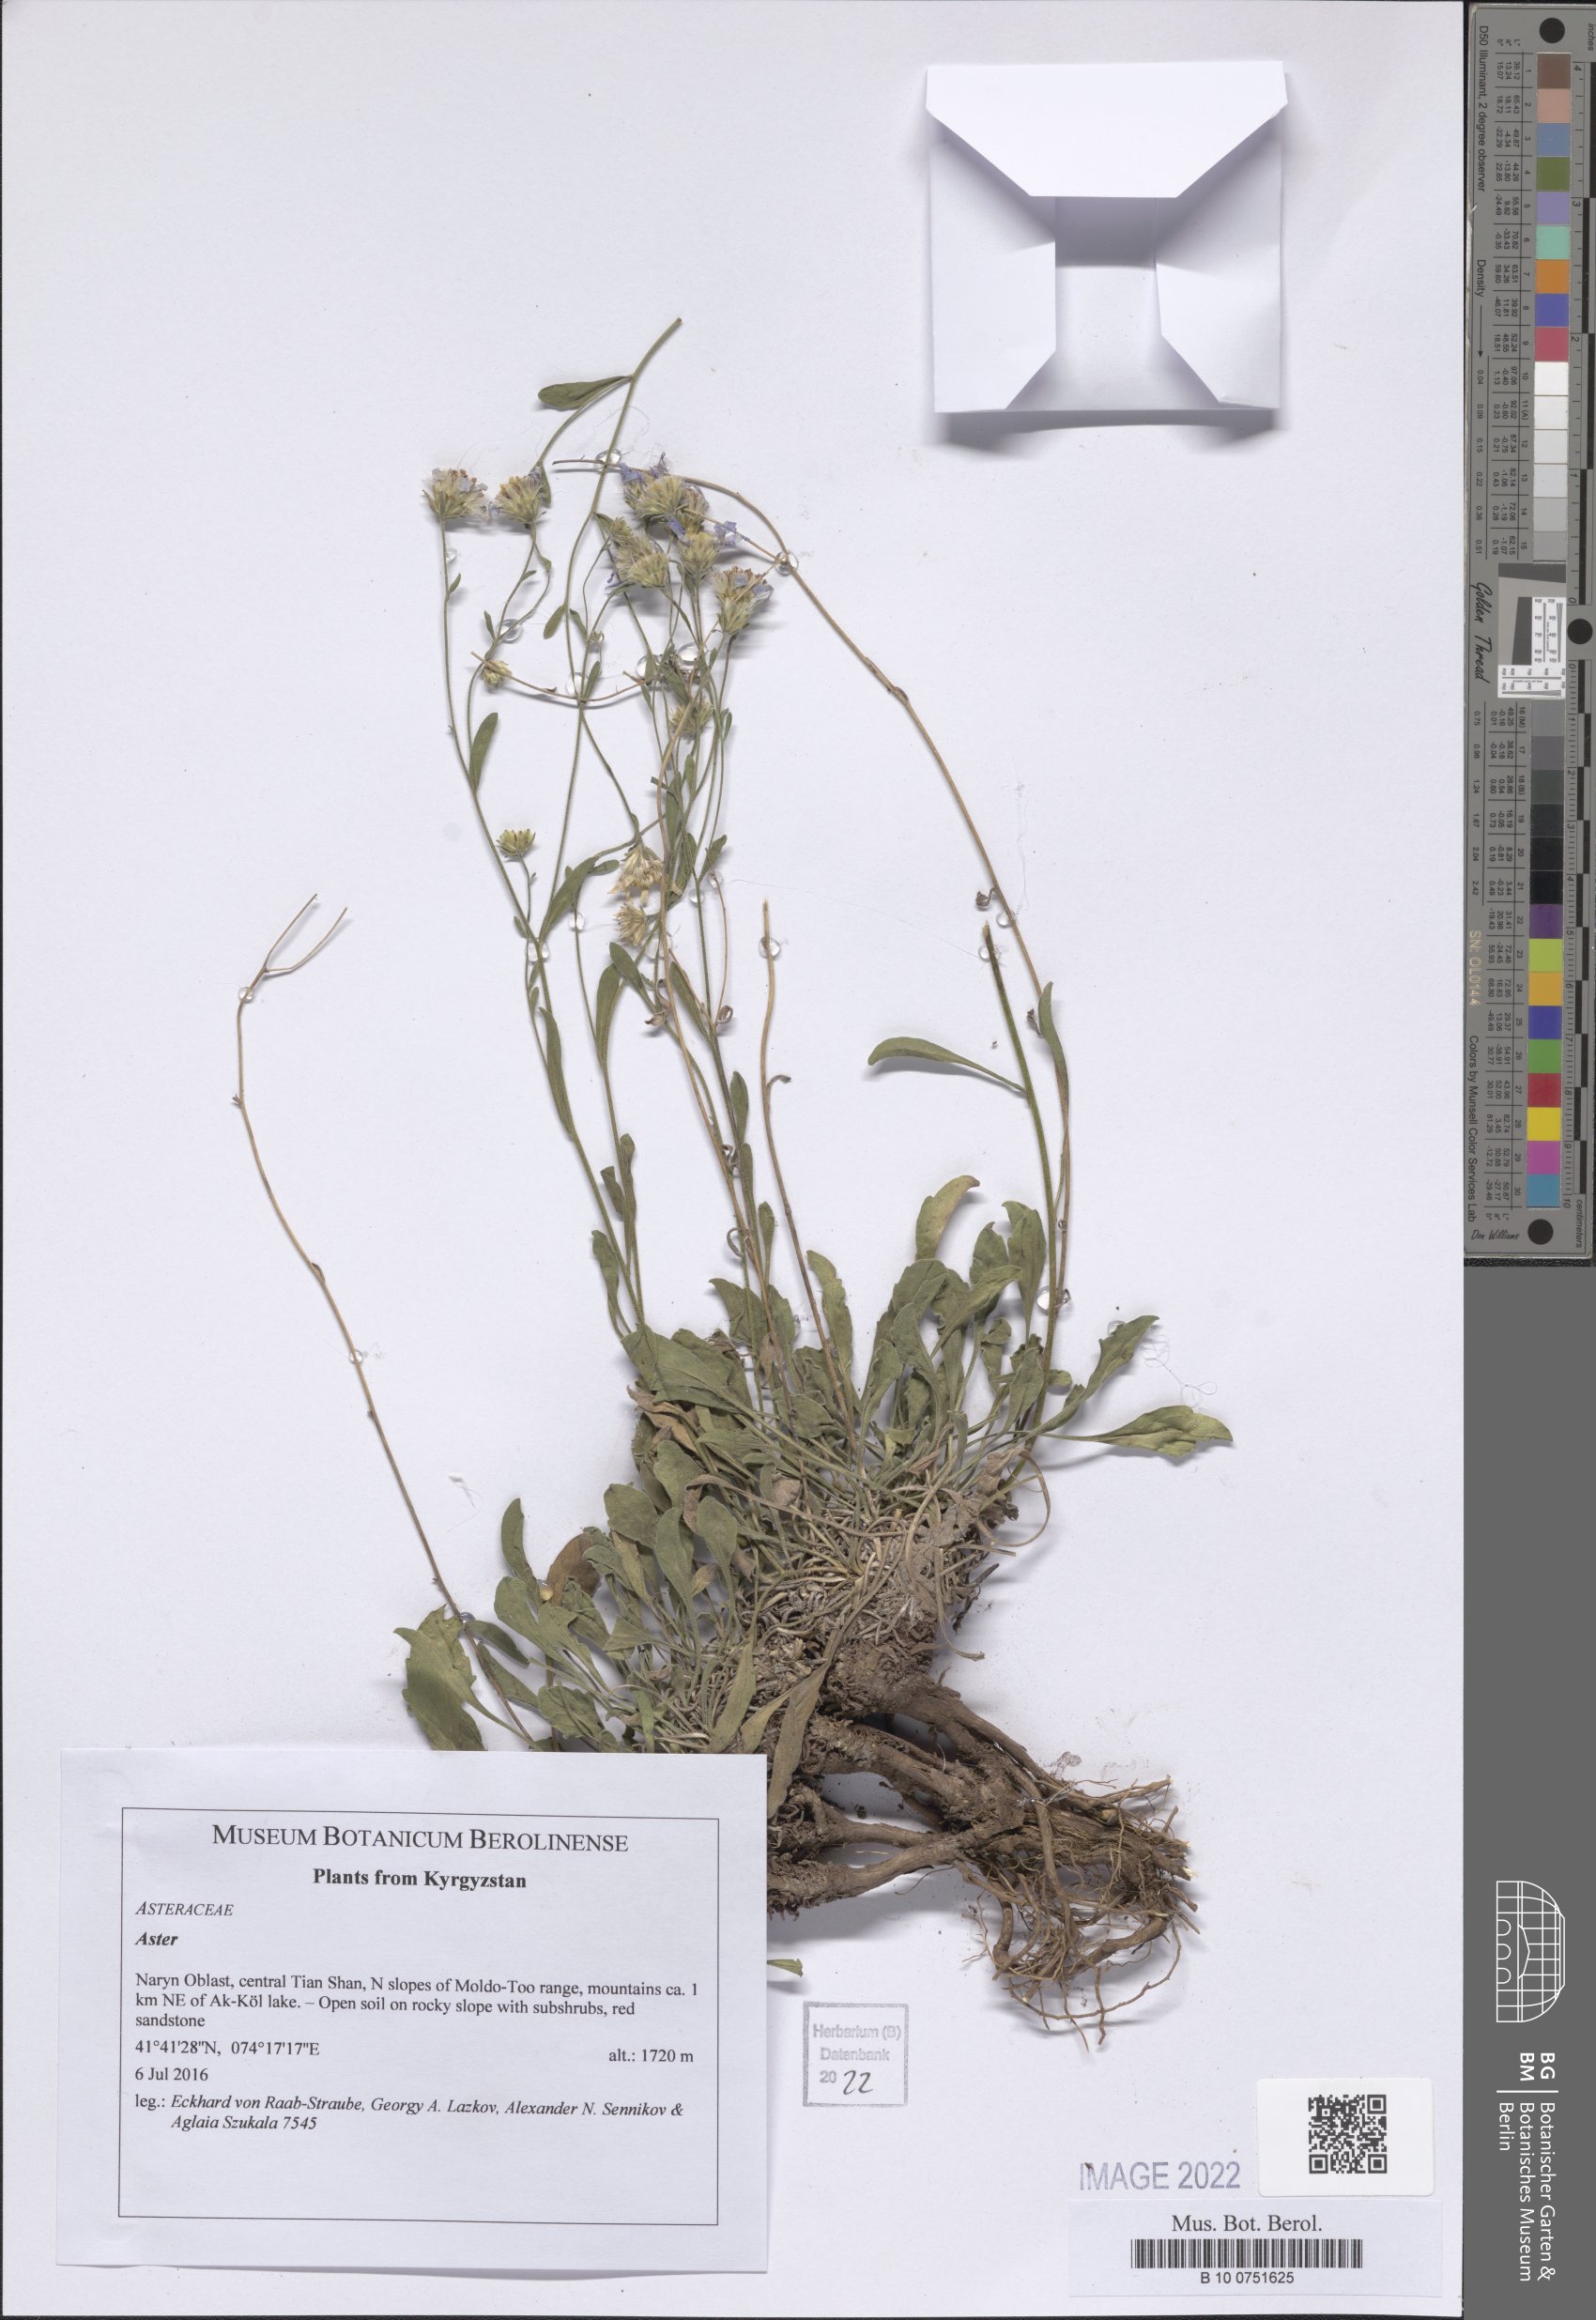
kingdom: Plantae
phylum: Tracheophyta
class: Magnoliopsida
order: Asterales
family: Asteraceae
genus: Aster
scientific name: Aster
